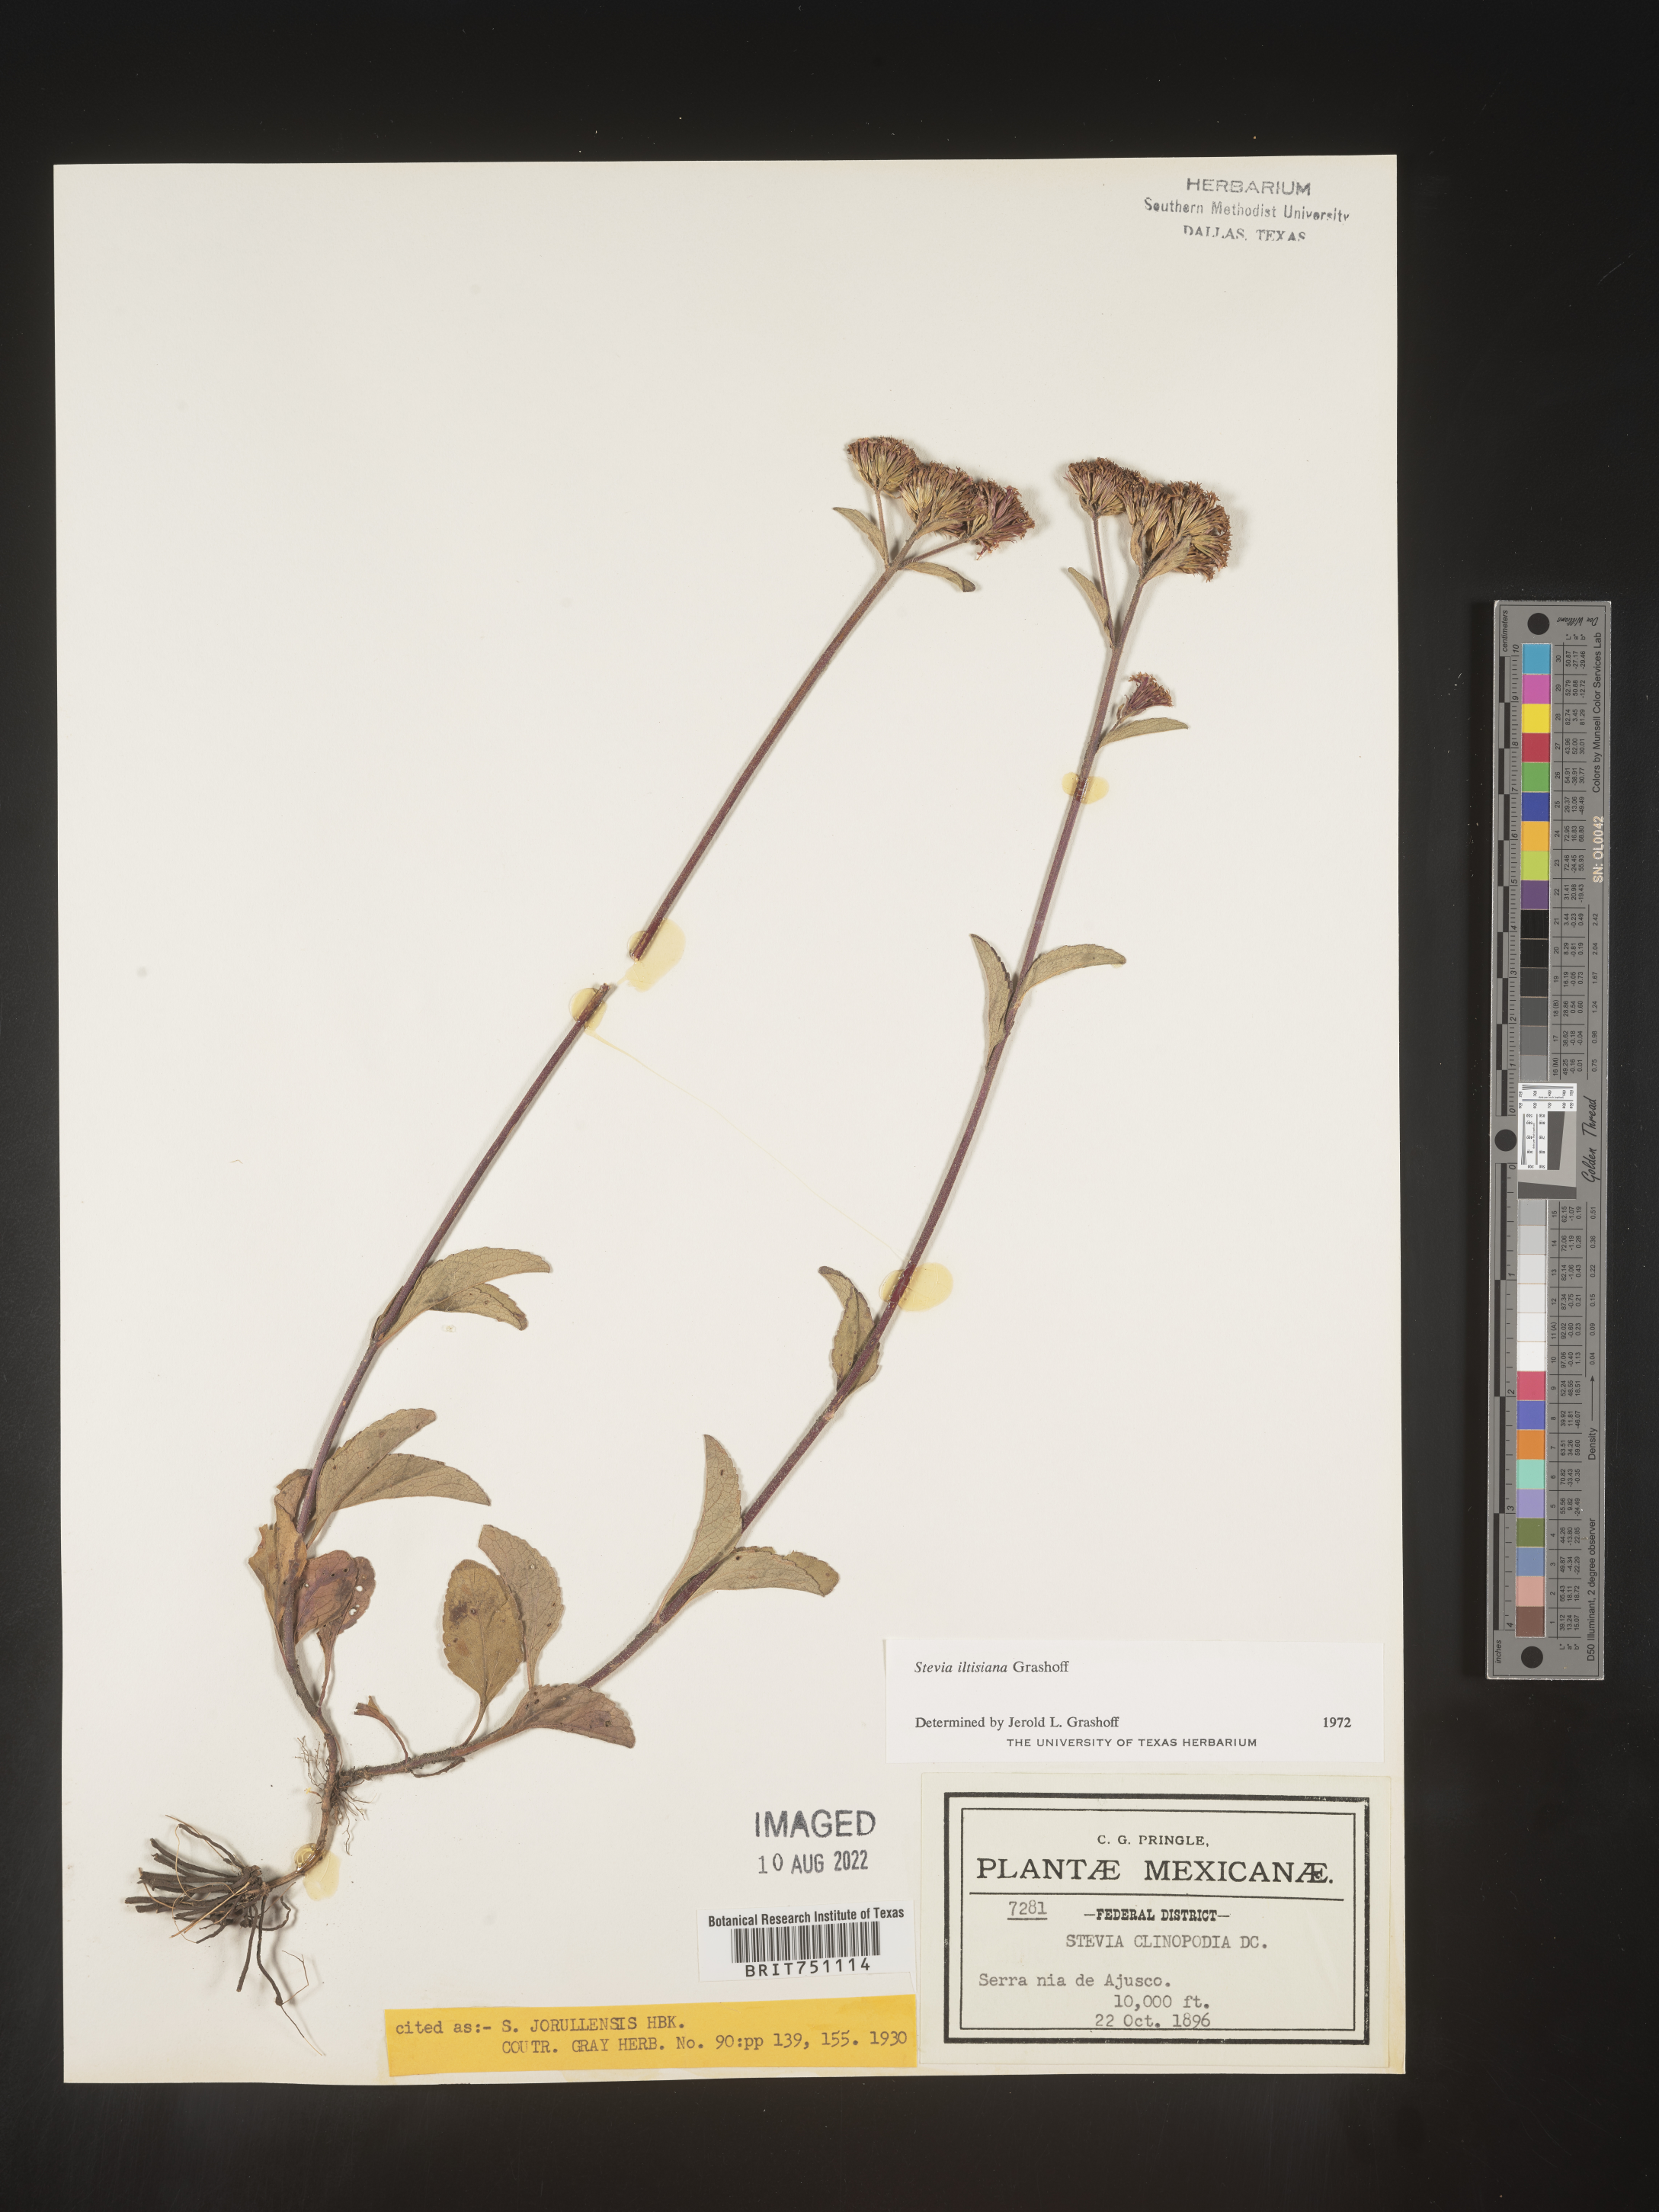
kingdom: Plantae
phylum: Tracheophyta
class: Magnoliopsida
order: Asterales
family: Asteraceae
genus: Stevia
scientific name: Stevia
